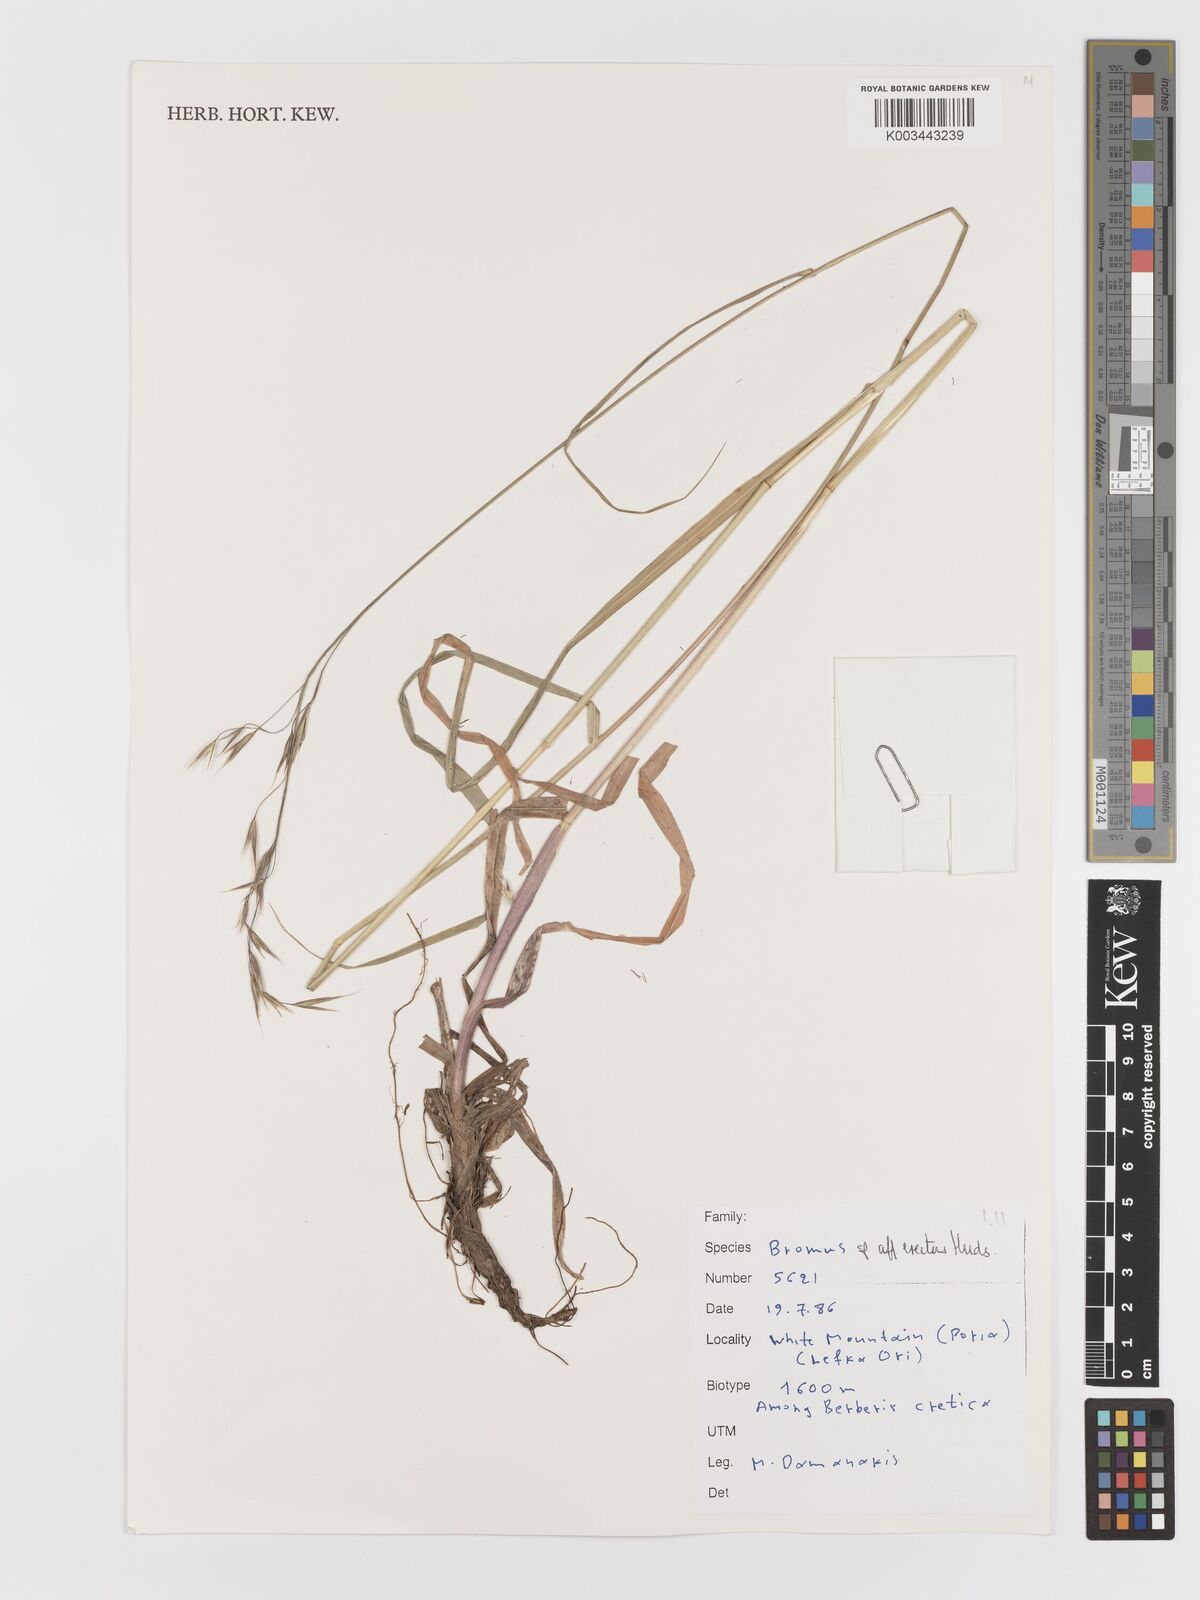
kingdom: Plantae
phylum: Tracheophyta
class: Liliopsida
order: Poales
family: Poaceae
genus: Bromus
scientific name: Bromus
